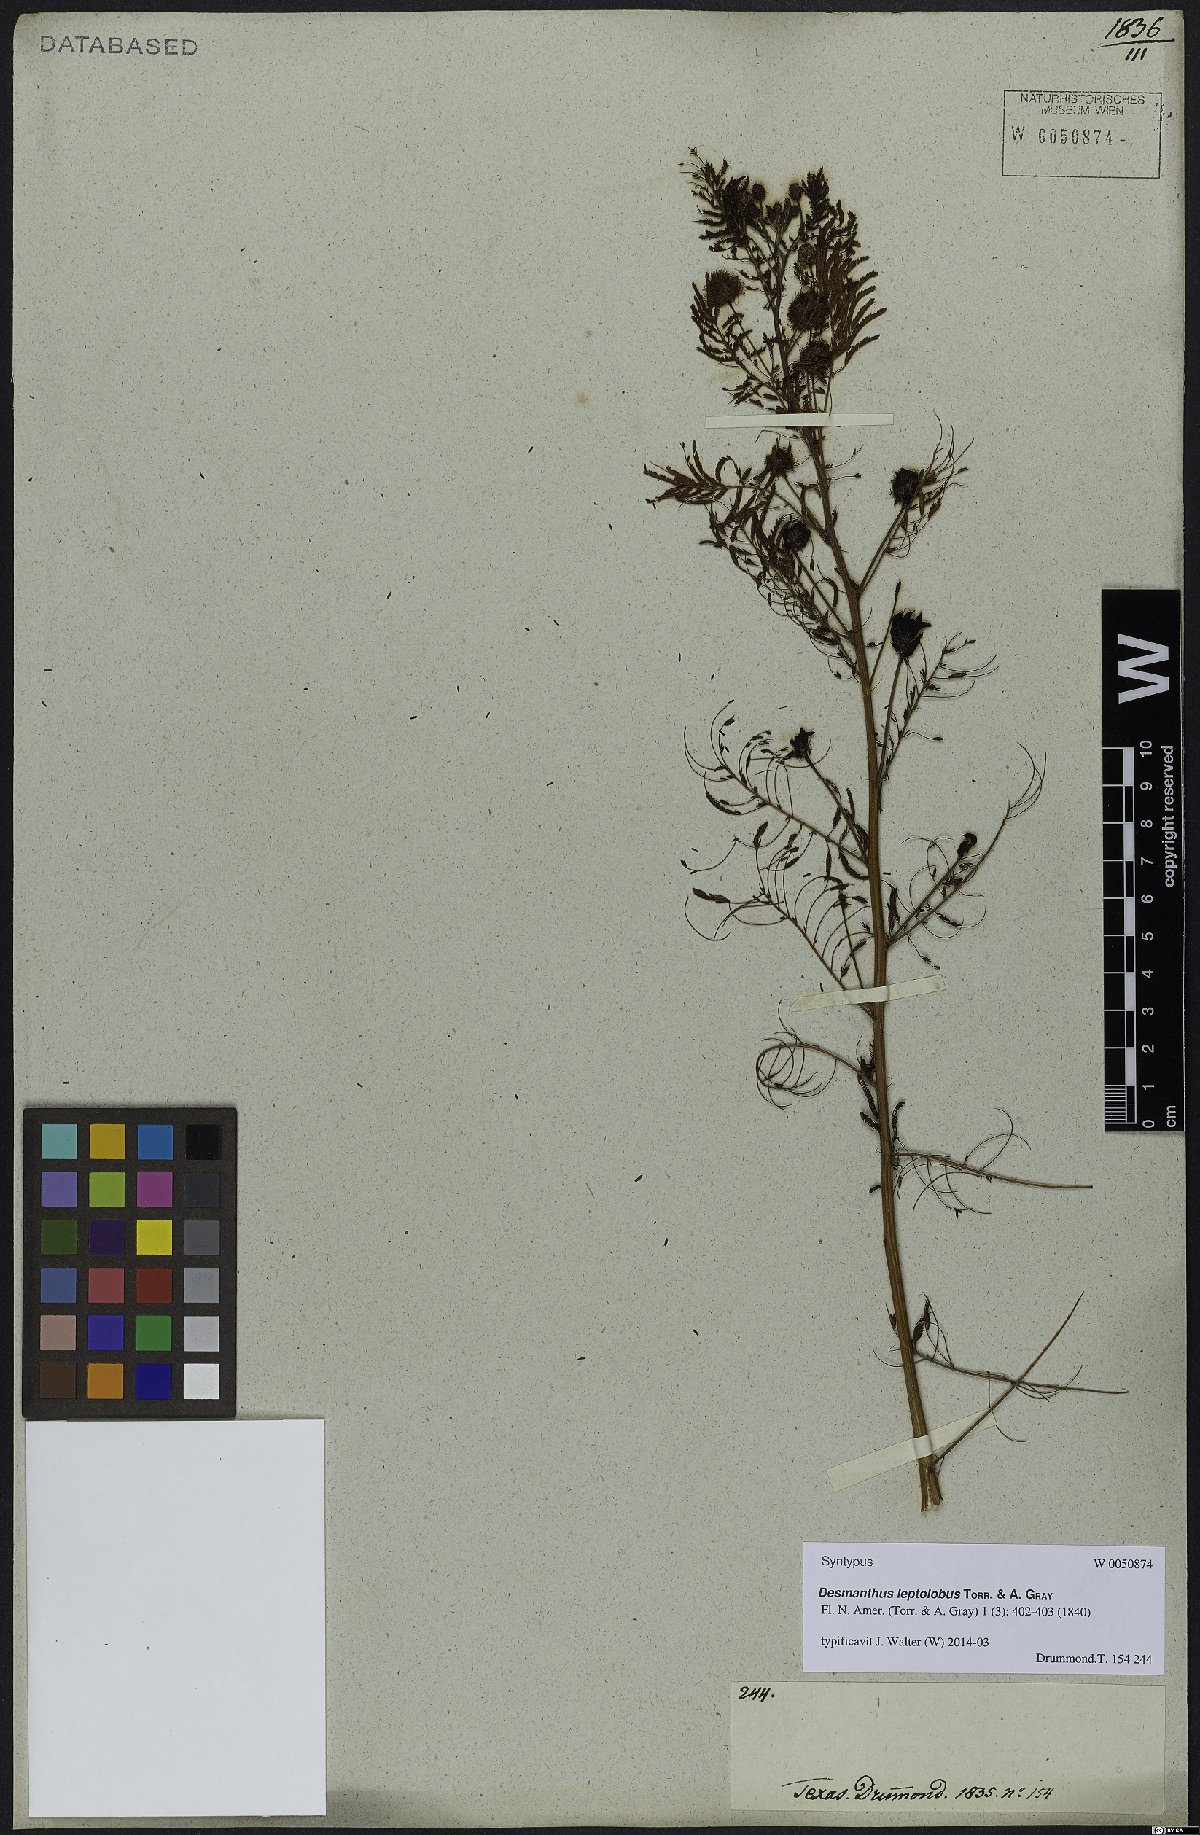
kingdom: Plantae
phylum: Tracheophyta
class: Magnoliopsida
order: Fabales
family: Fabaceae
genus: Desmanthus
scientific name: Desmanthus leptolobus
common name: Prairie-mimosa
